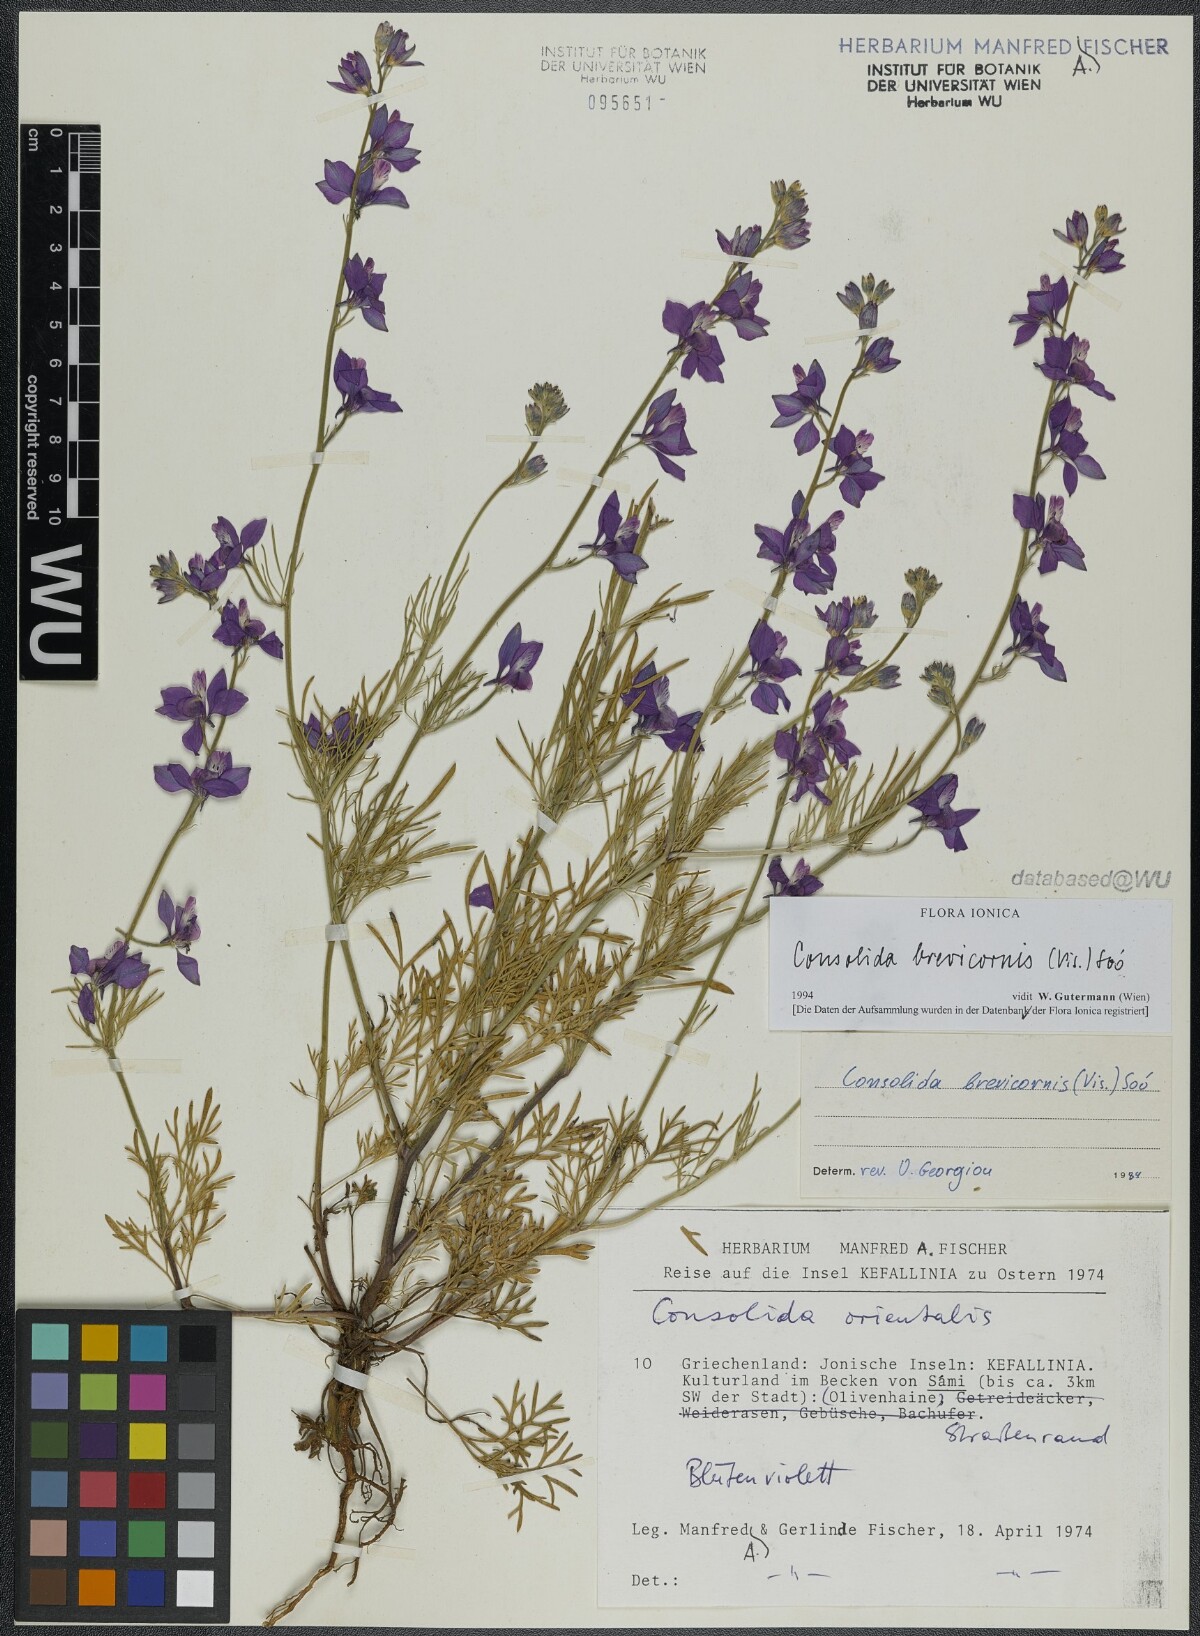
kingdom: Plantae
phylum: Tracheophyta
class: Magnoliopsida
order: Ranunculales
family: Ranunculaceae
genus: Delphinium
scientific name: Delphinium brevicorne
